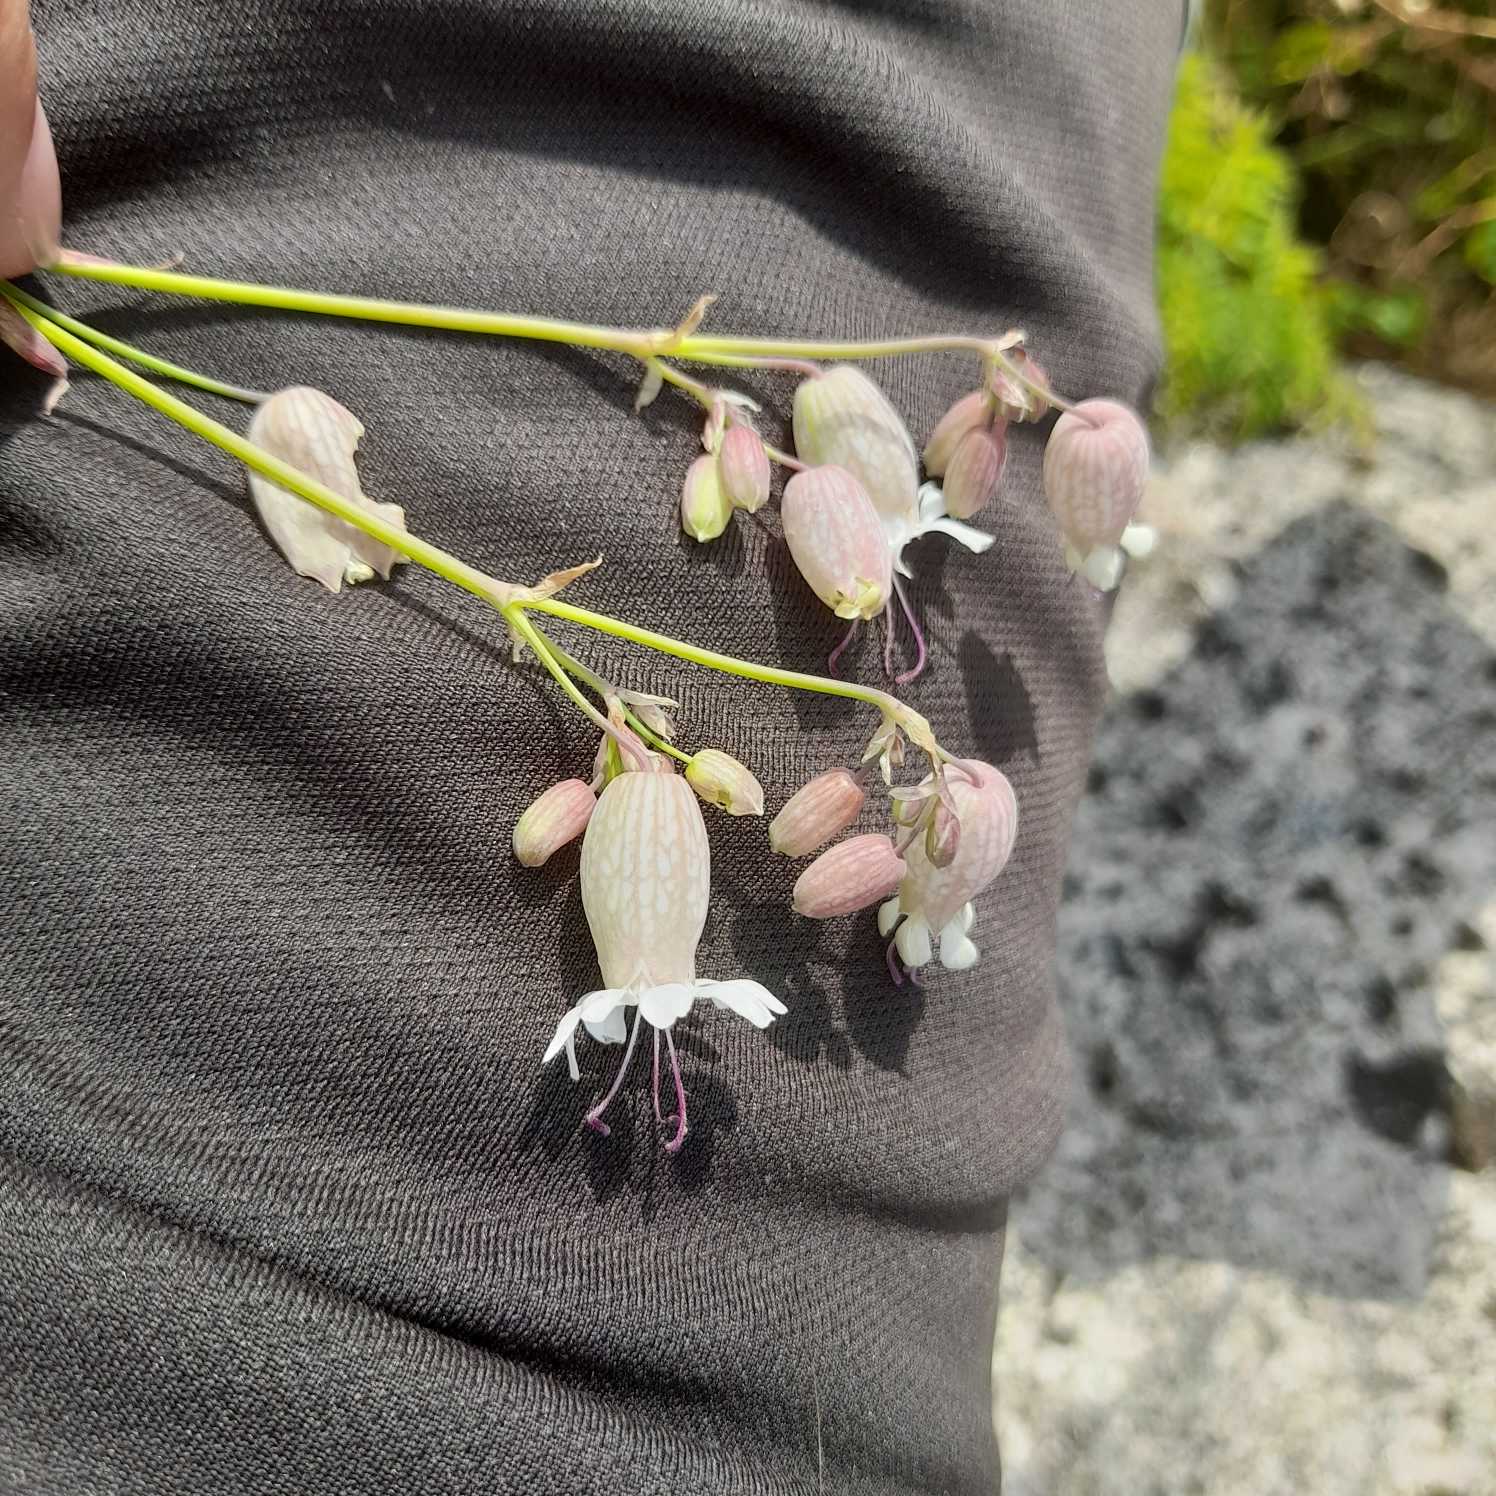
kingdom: Plantae
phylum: Tracheophyta
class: Magnoliopsida
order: Caryophyllales
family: Caryophyllaceae
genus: Silene
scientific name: Silene vulgaris
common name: Blæresmælde
